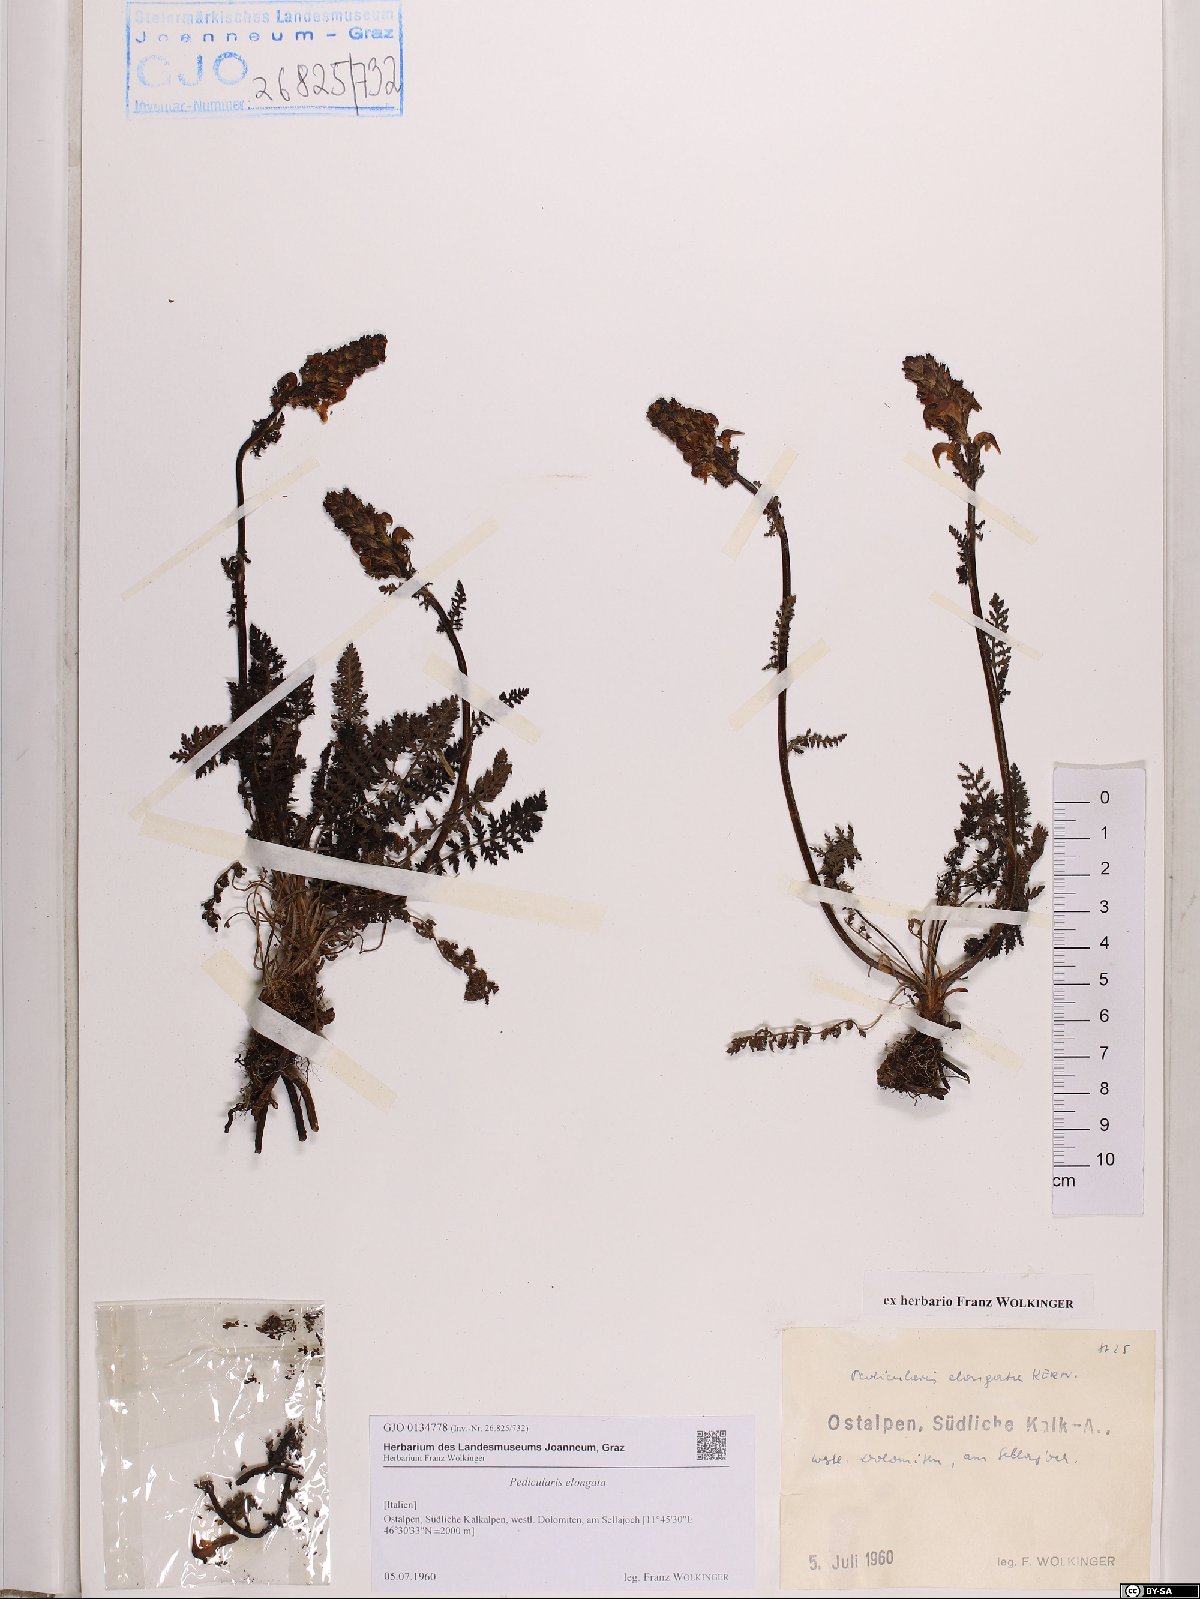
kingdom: Plantae
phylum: Tracheophyta
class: Magnoliopsida
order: Lamiales
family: Orobanchaceae
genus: Pedicularis
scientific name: Pedicularis elongata
